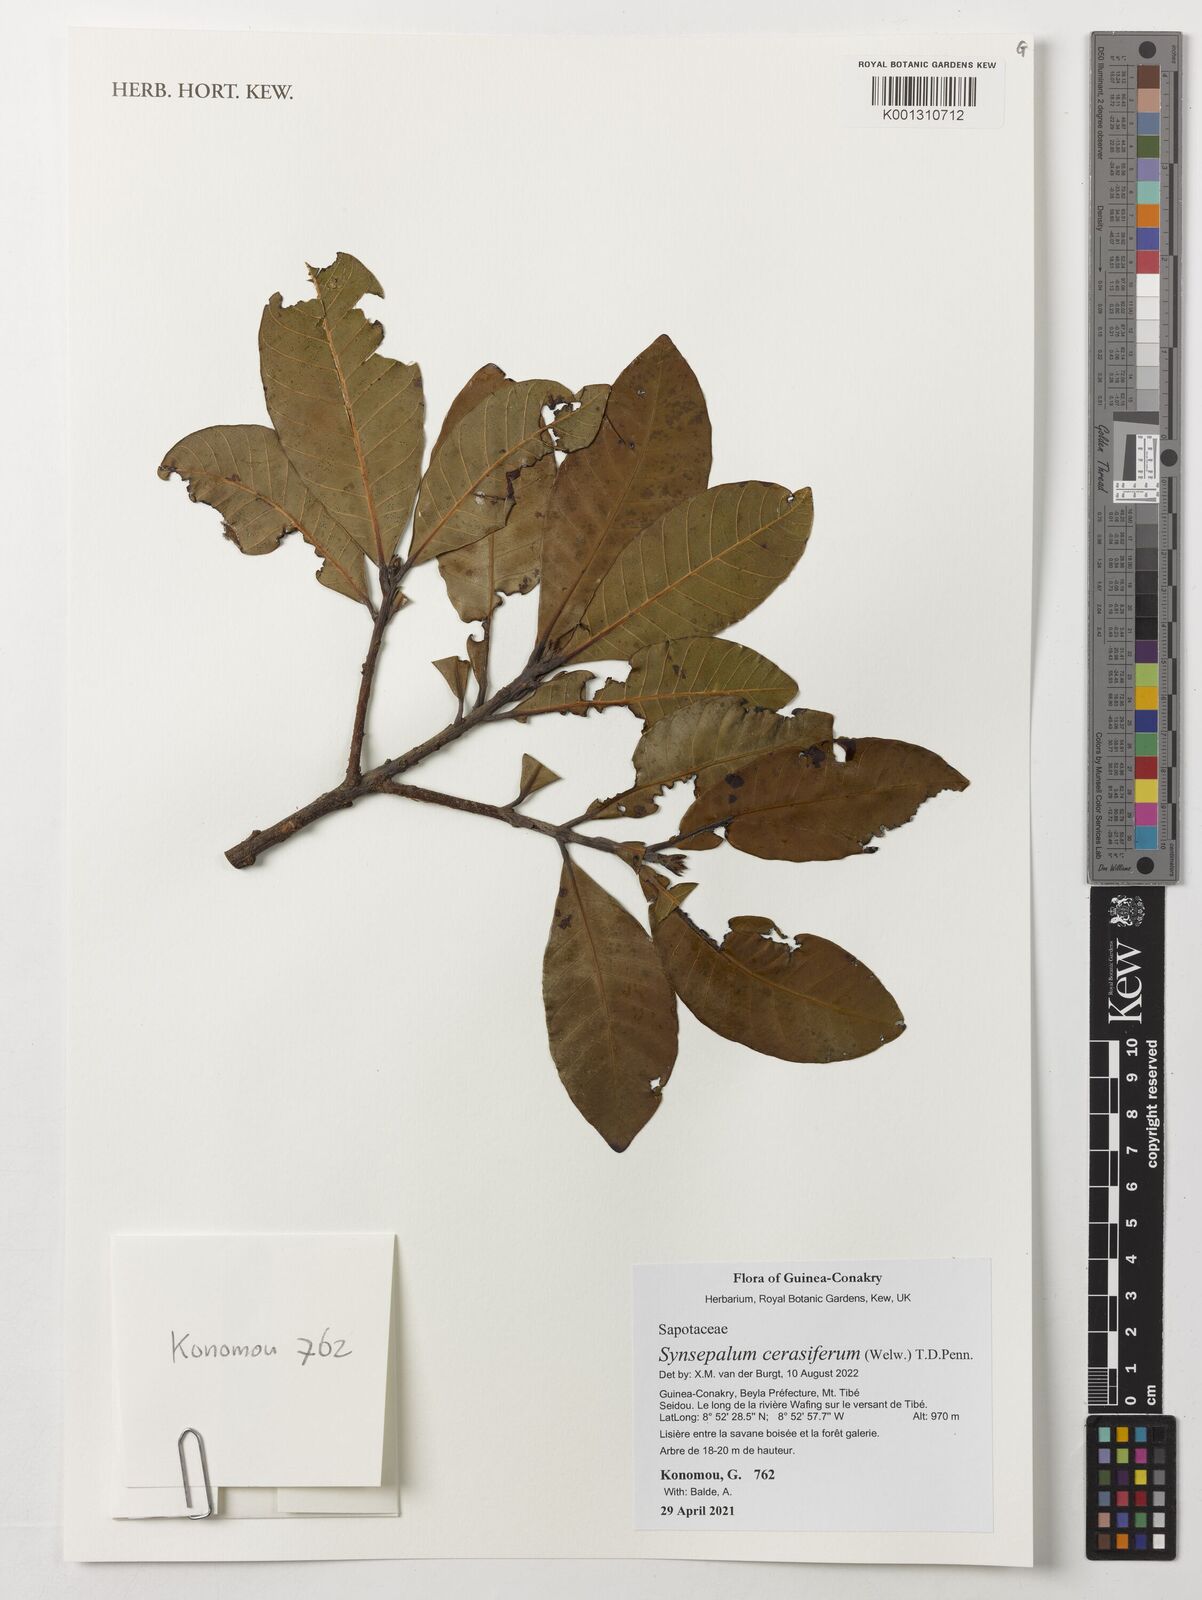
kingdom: Plantae
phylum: Tracheophyta
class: Magnoliopsida
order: Ericales
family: Sapotaceae
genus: Synsepalum
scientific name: Synsepalum cerasiferum
